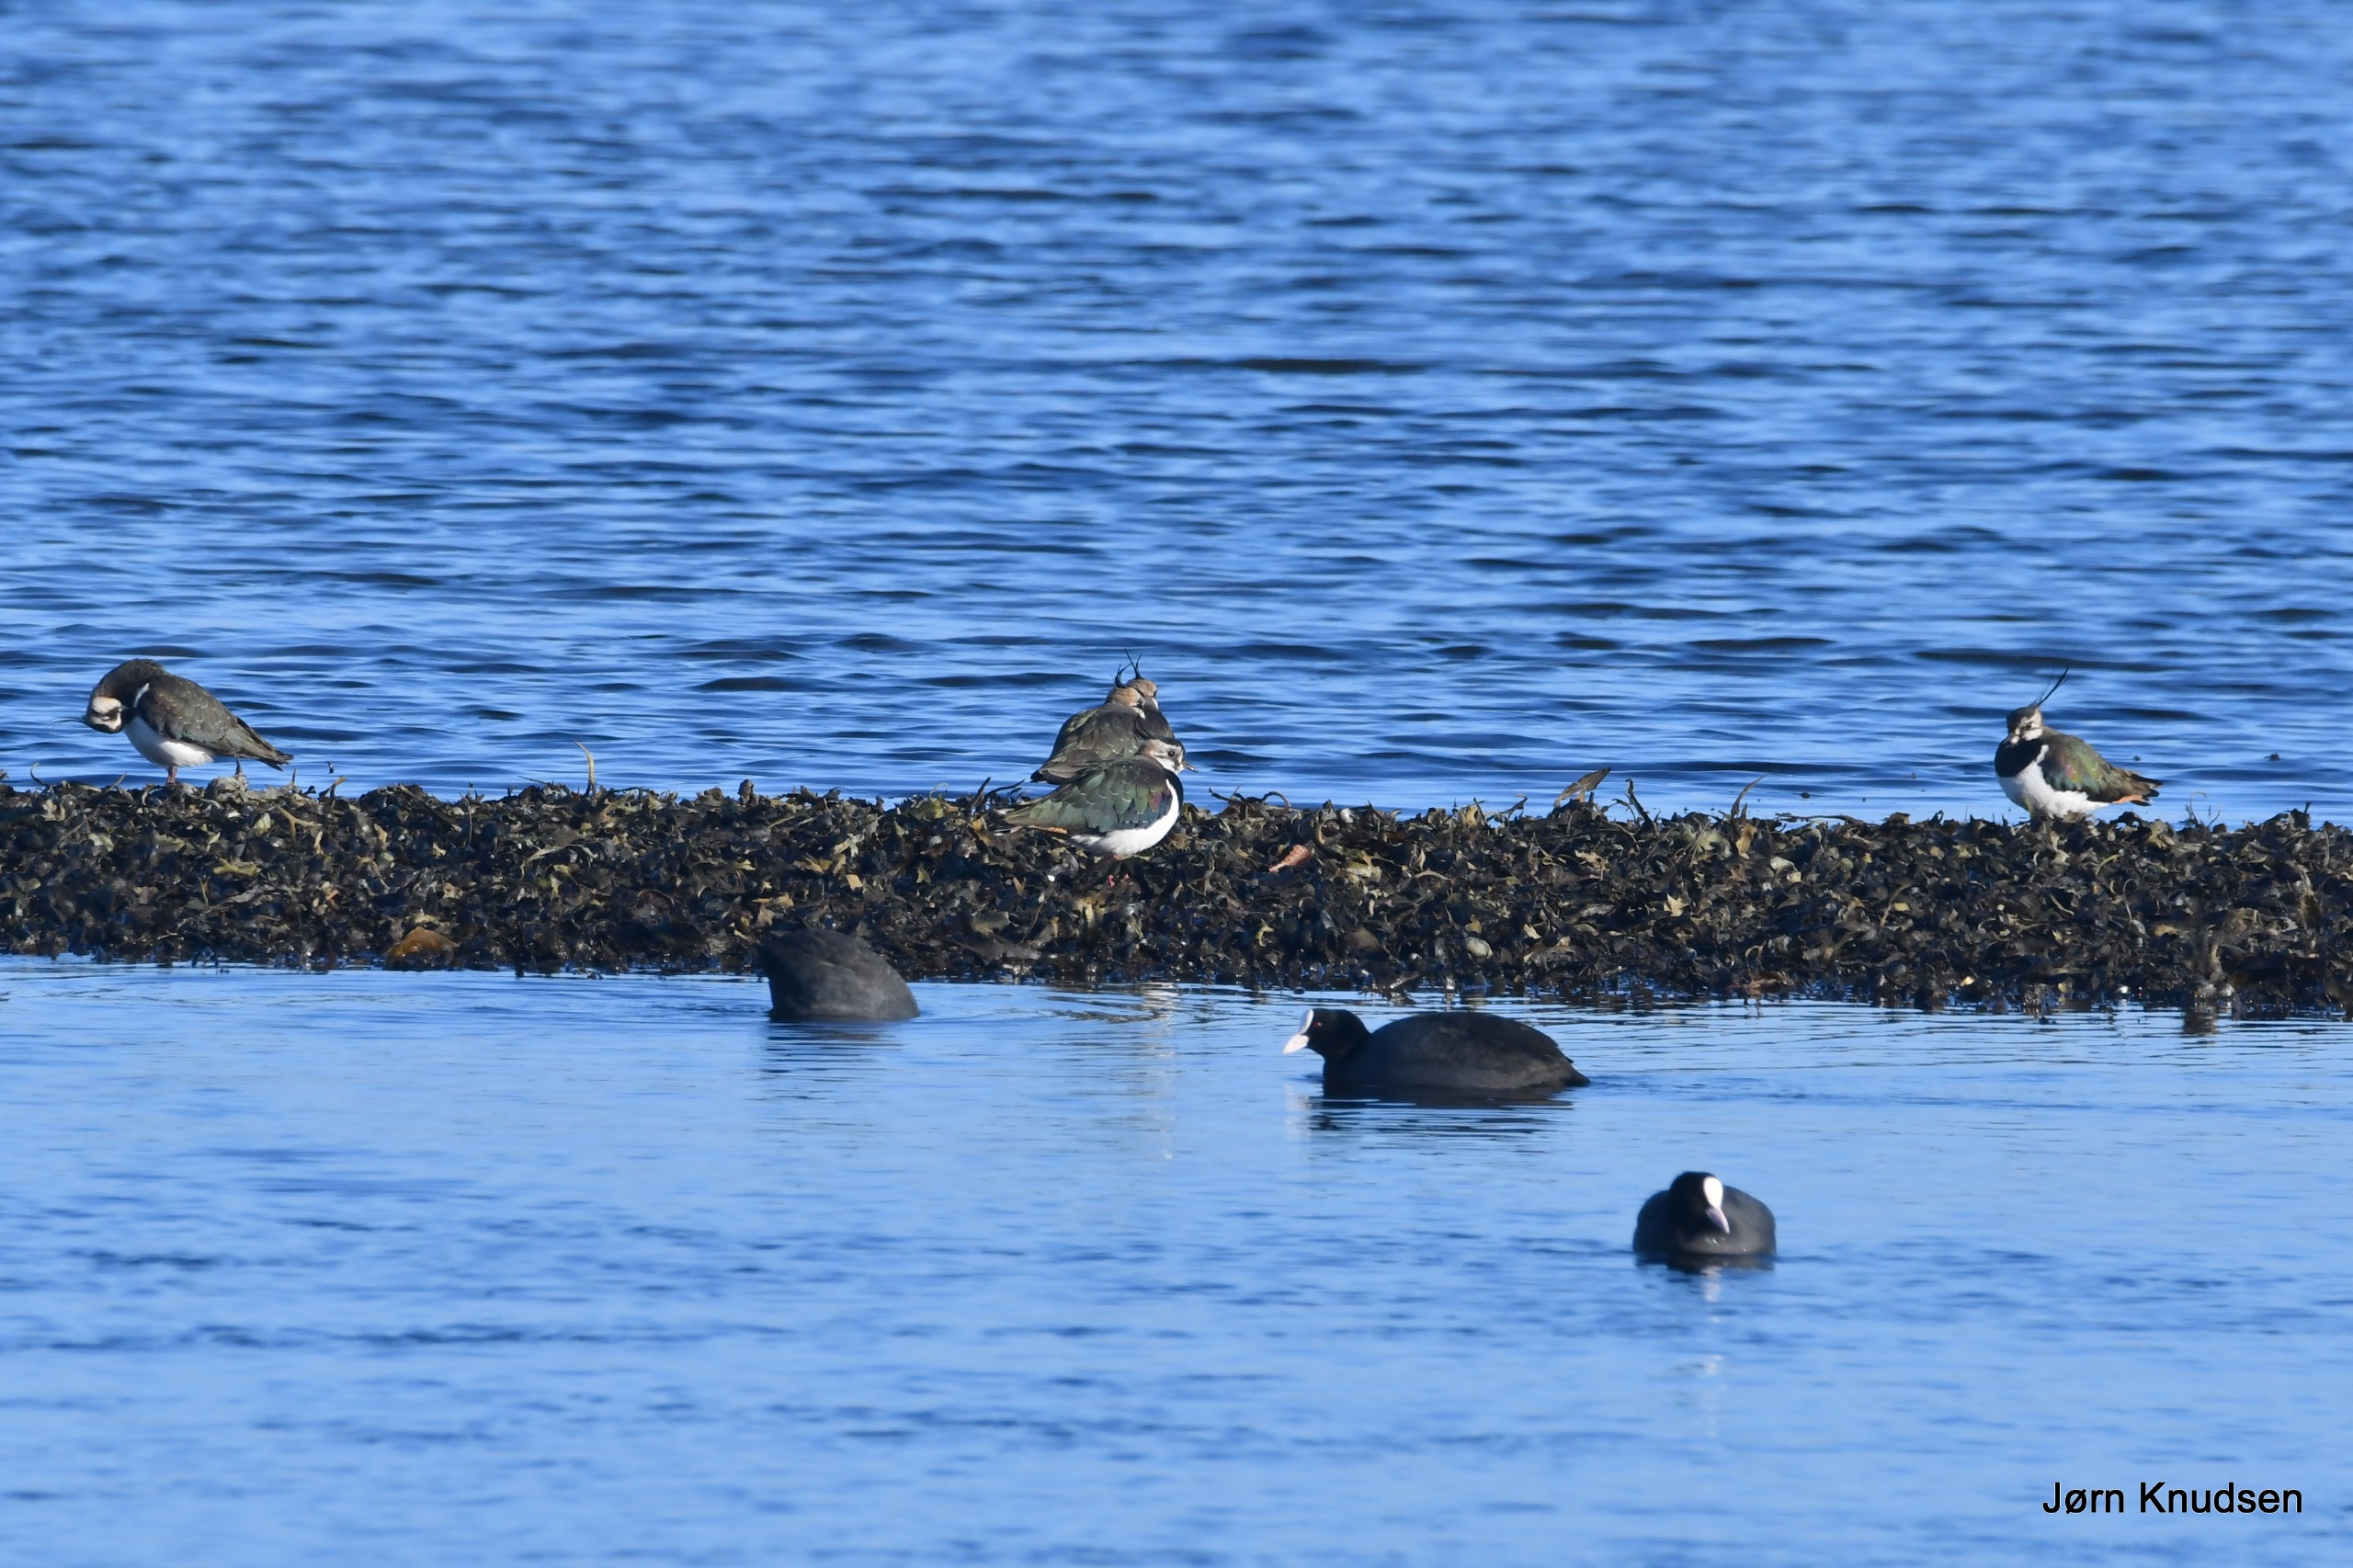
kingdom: Animalia
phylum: Chordata
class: Aves
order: Gruiformes
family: Rallidae
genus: Fulica
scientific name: Fulica atra
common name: Blishøne
